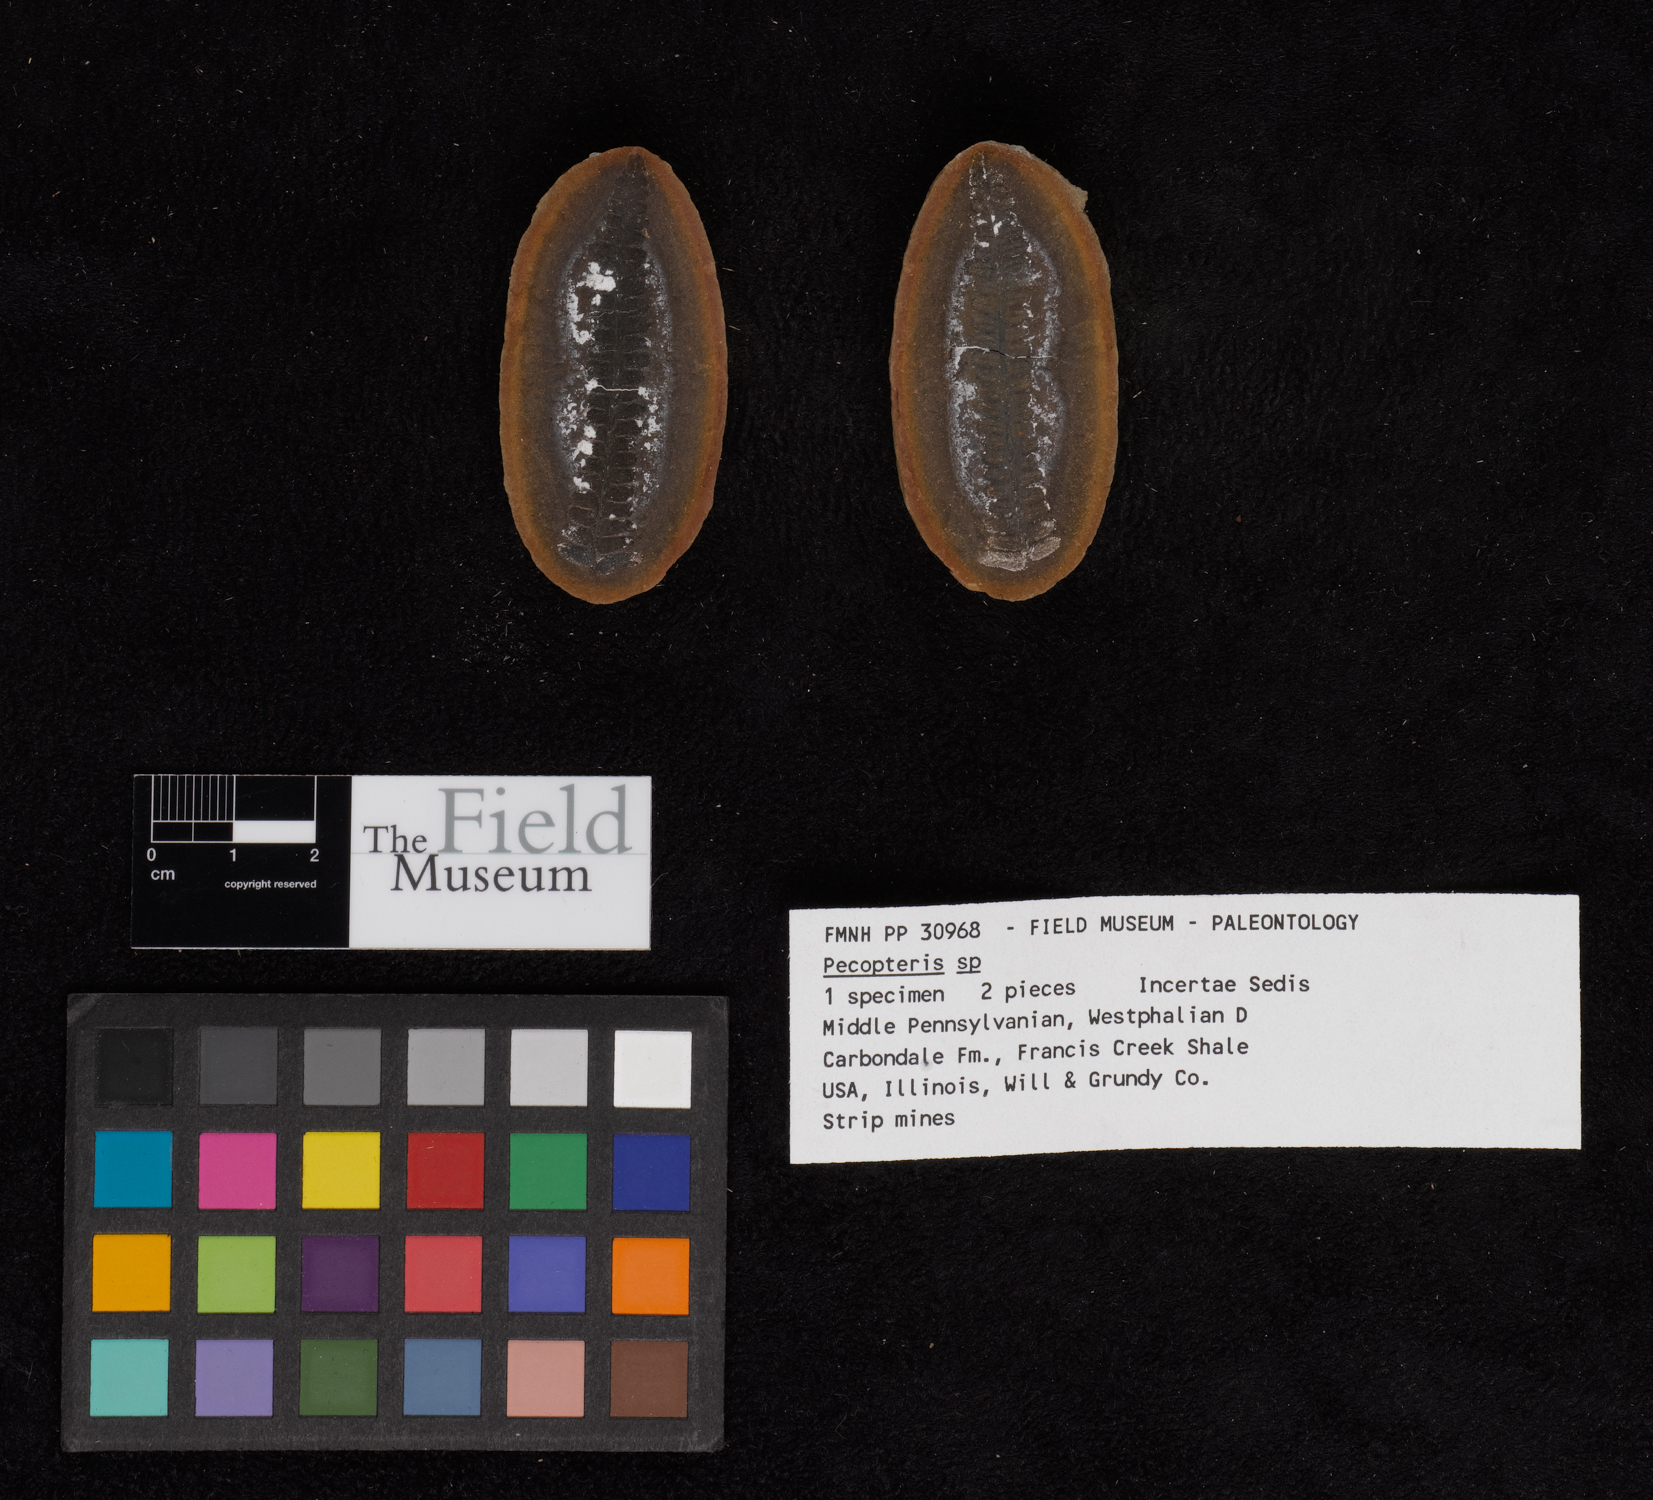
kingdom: Plantae
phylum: Tracheophyta
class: Polypodiopsida
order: Marattiales
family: Asterothecaceae
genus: Pecopteris
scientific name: Pecopteris
